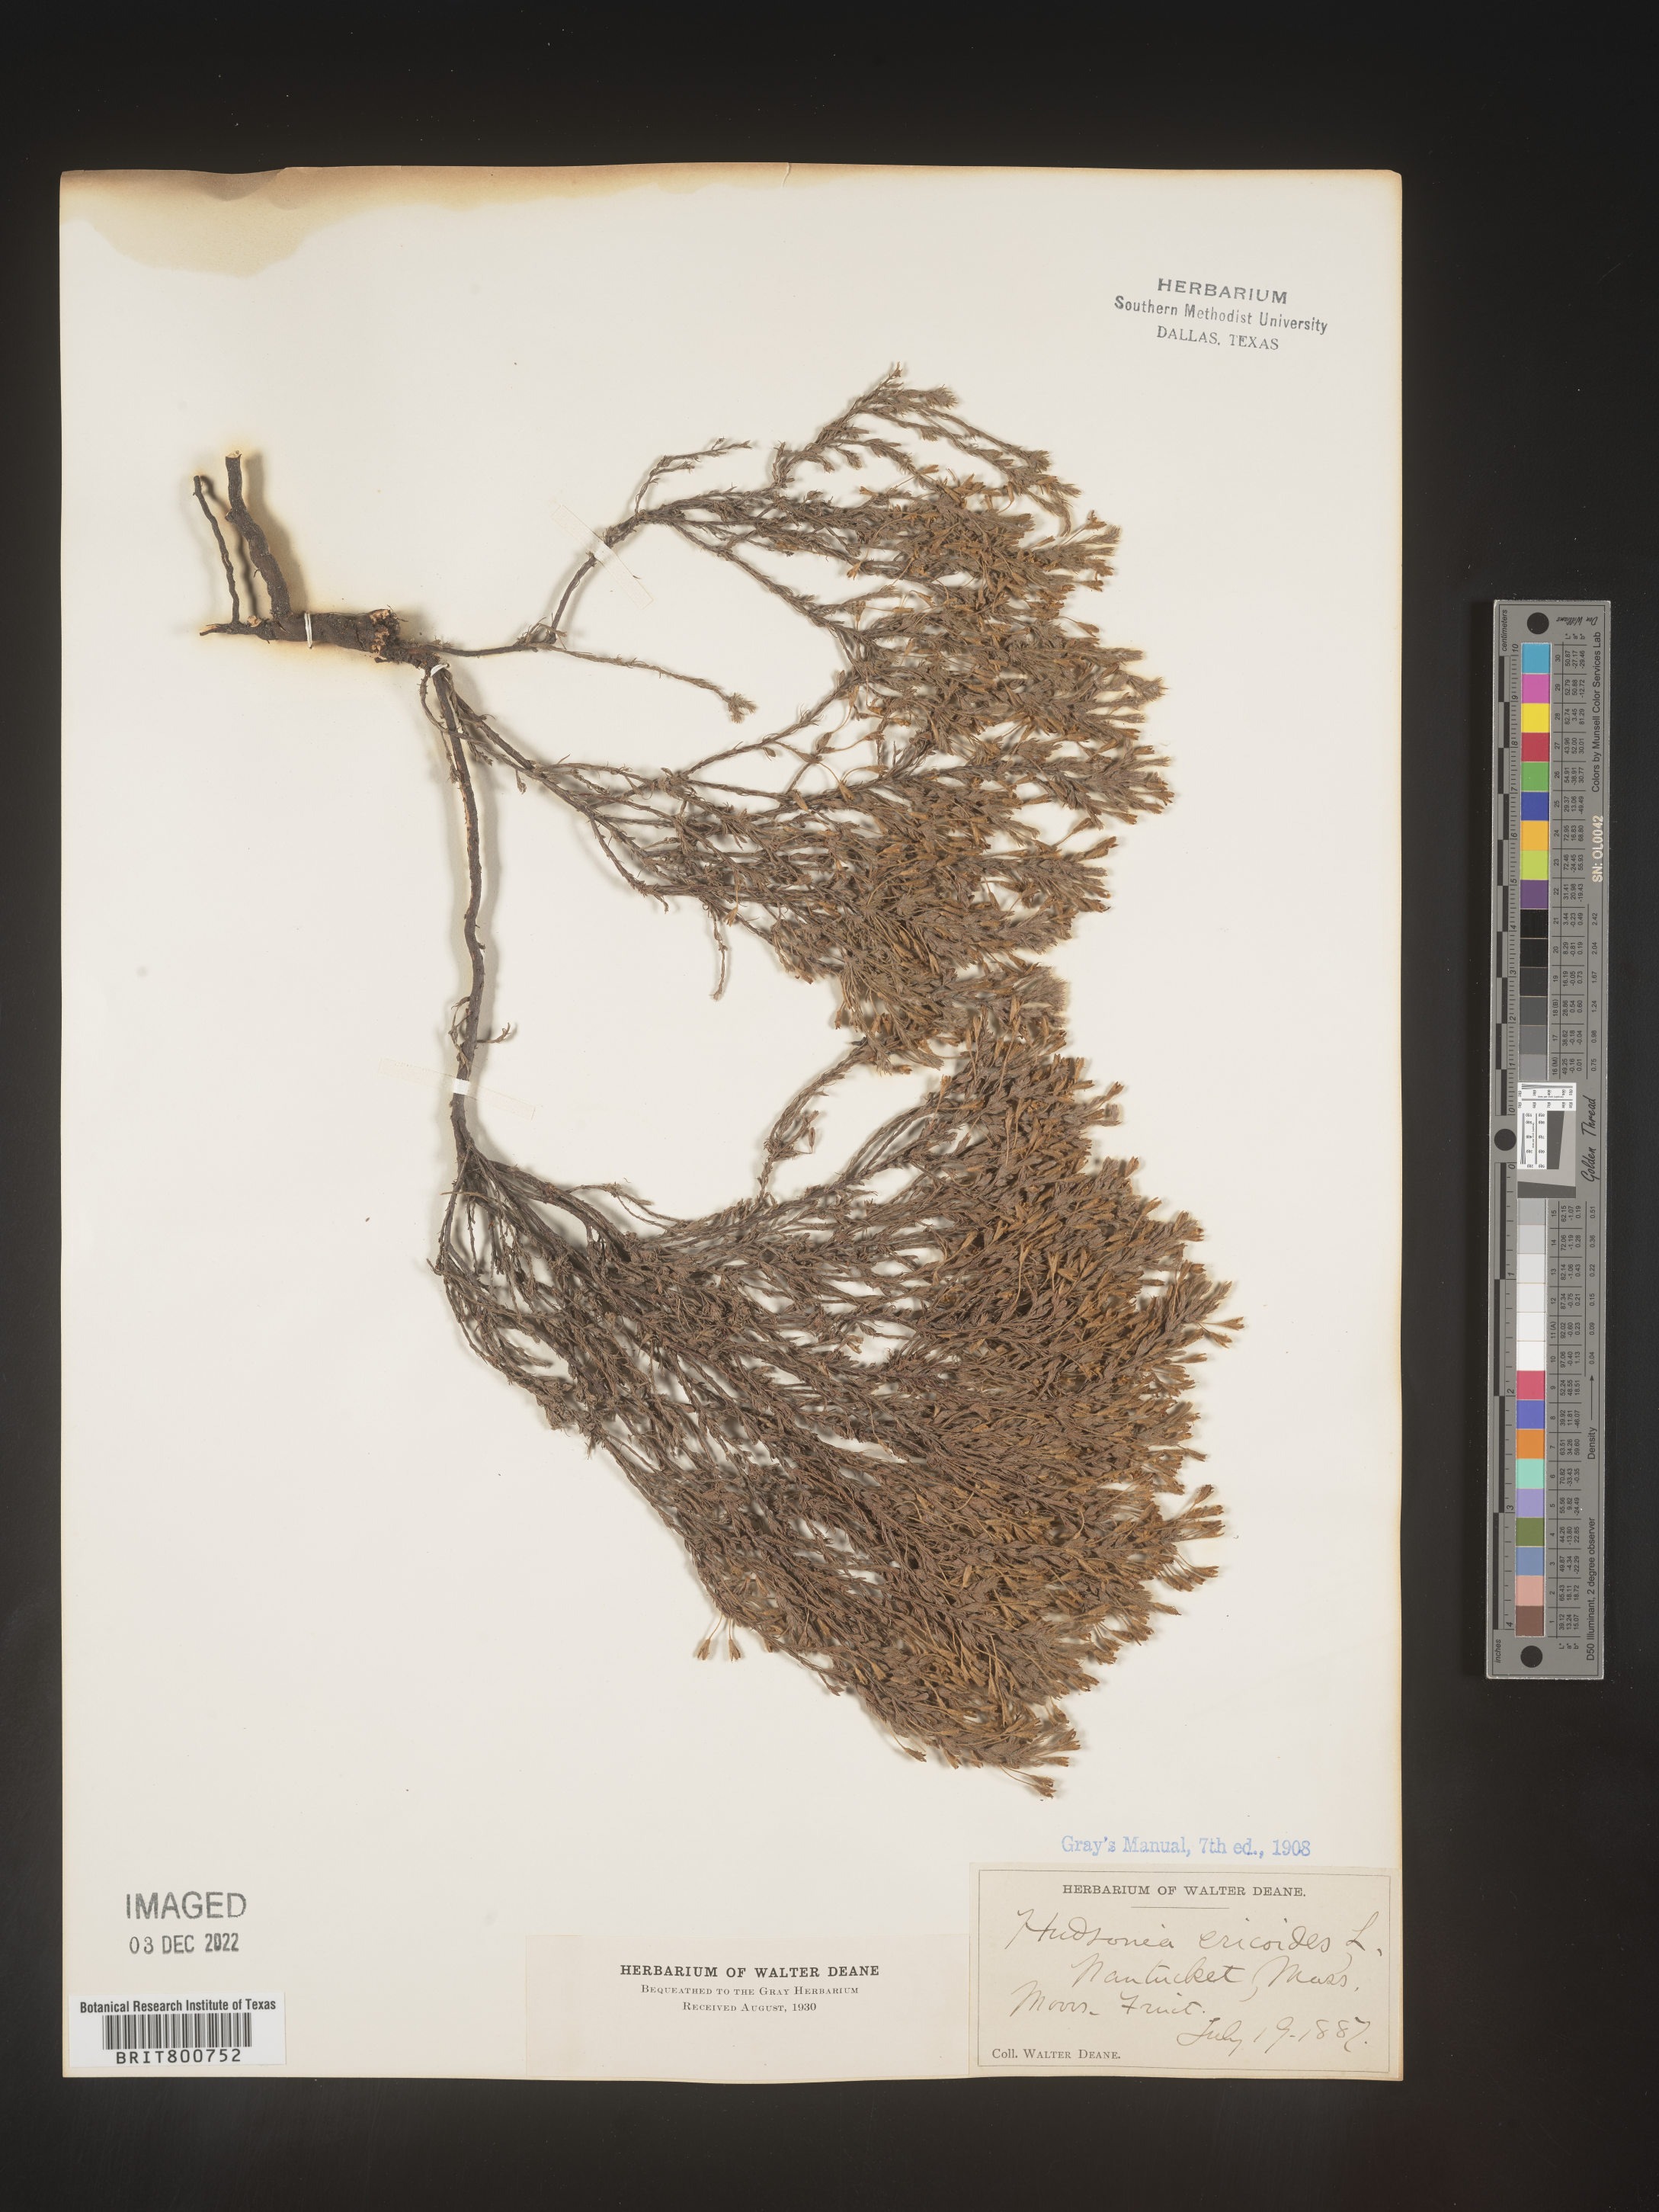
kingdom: Plantae
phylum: Tracheophyta
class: Magnoliopsida
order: Malvales
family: Cistaceae
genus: Hudsonia
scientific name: Hudsonia ericoides
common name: Golden-heather
